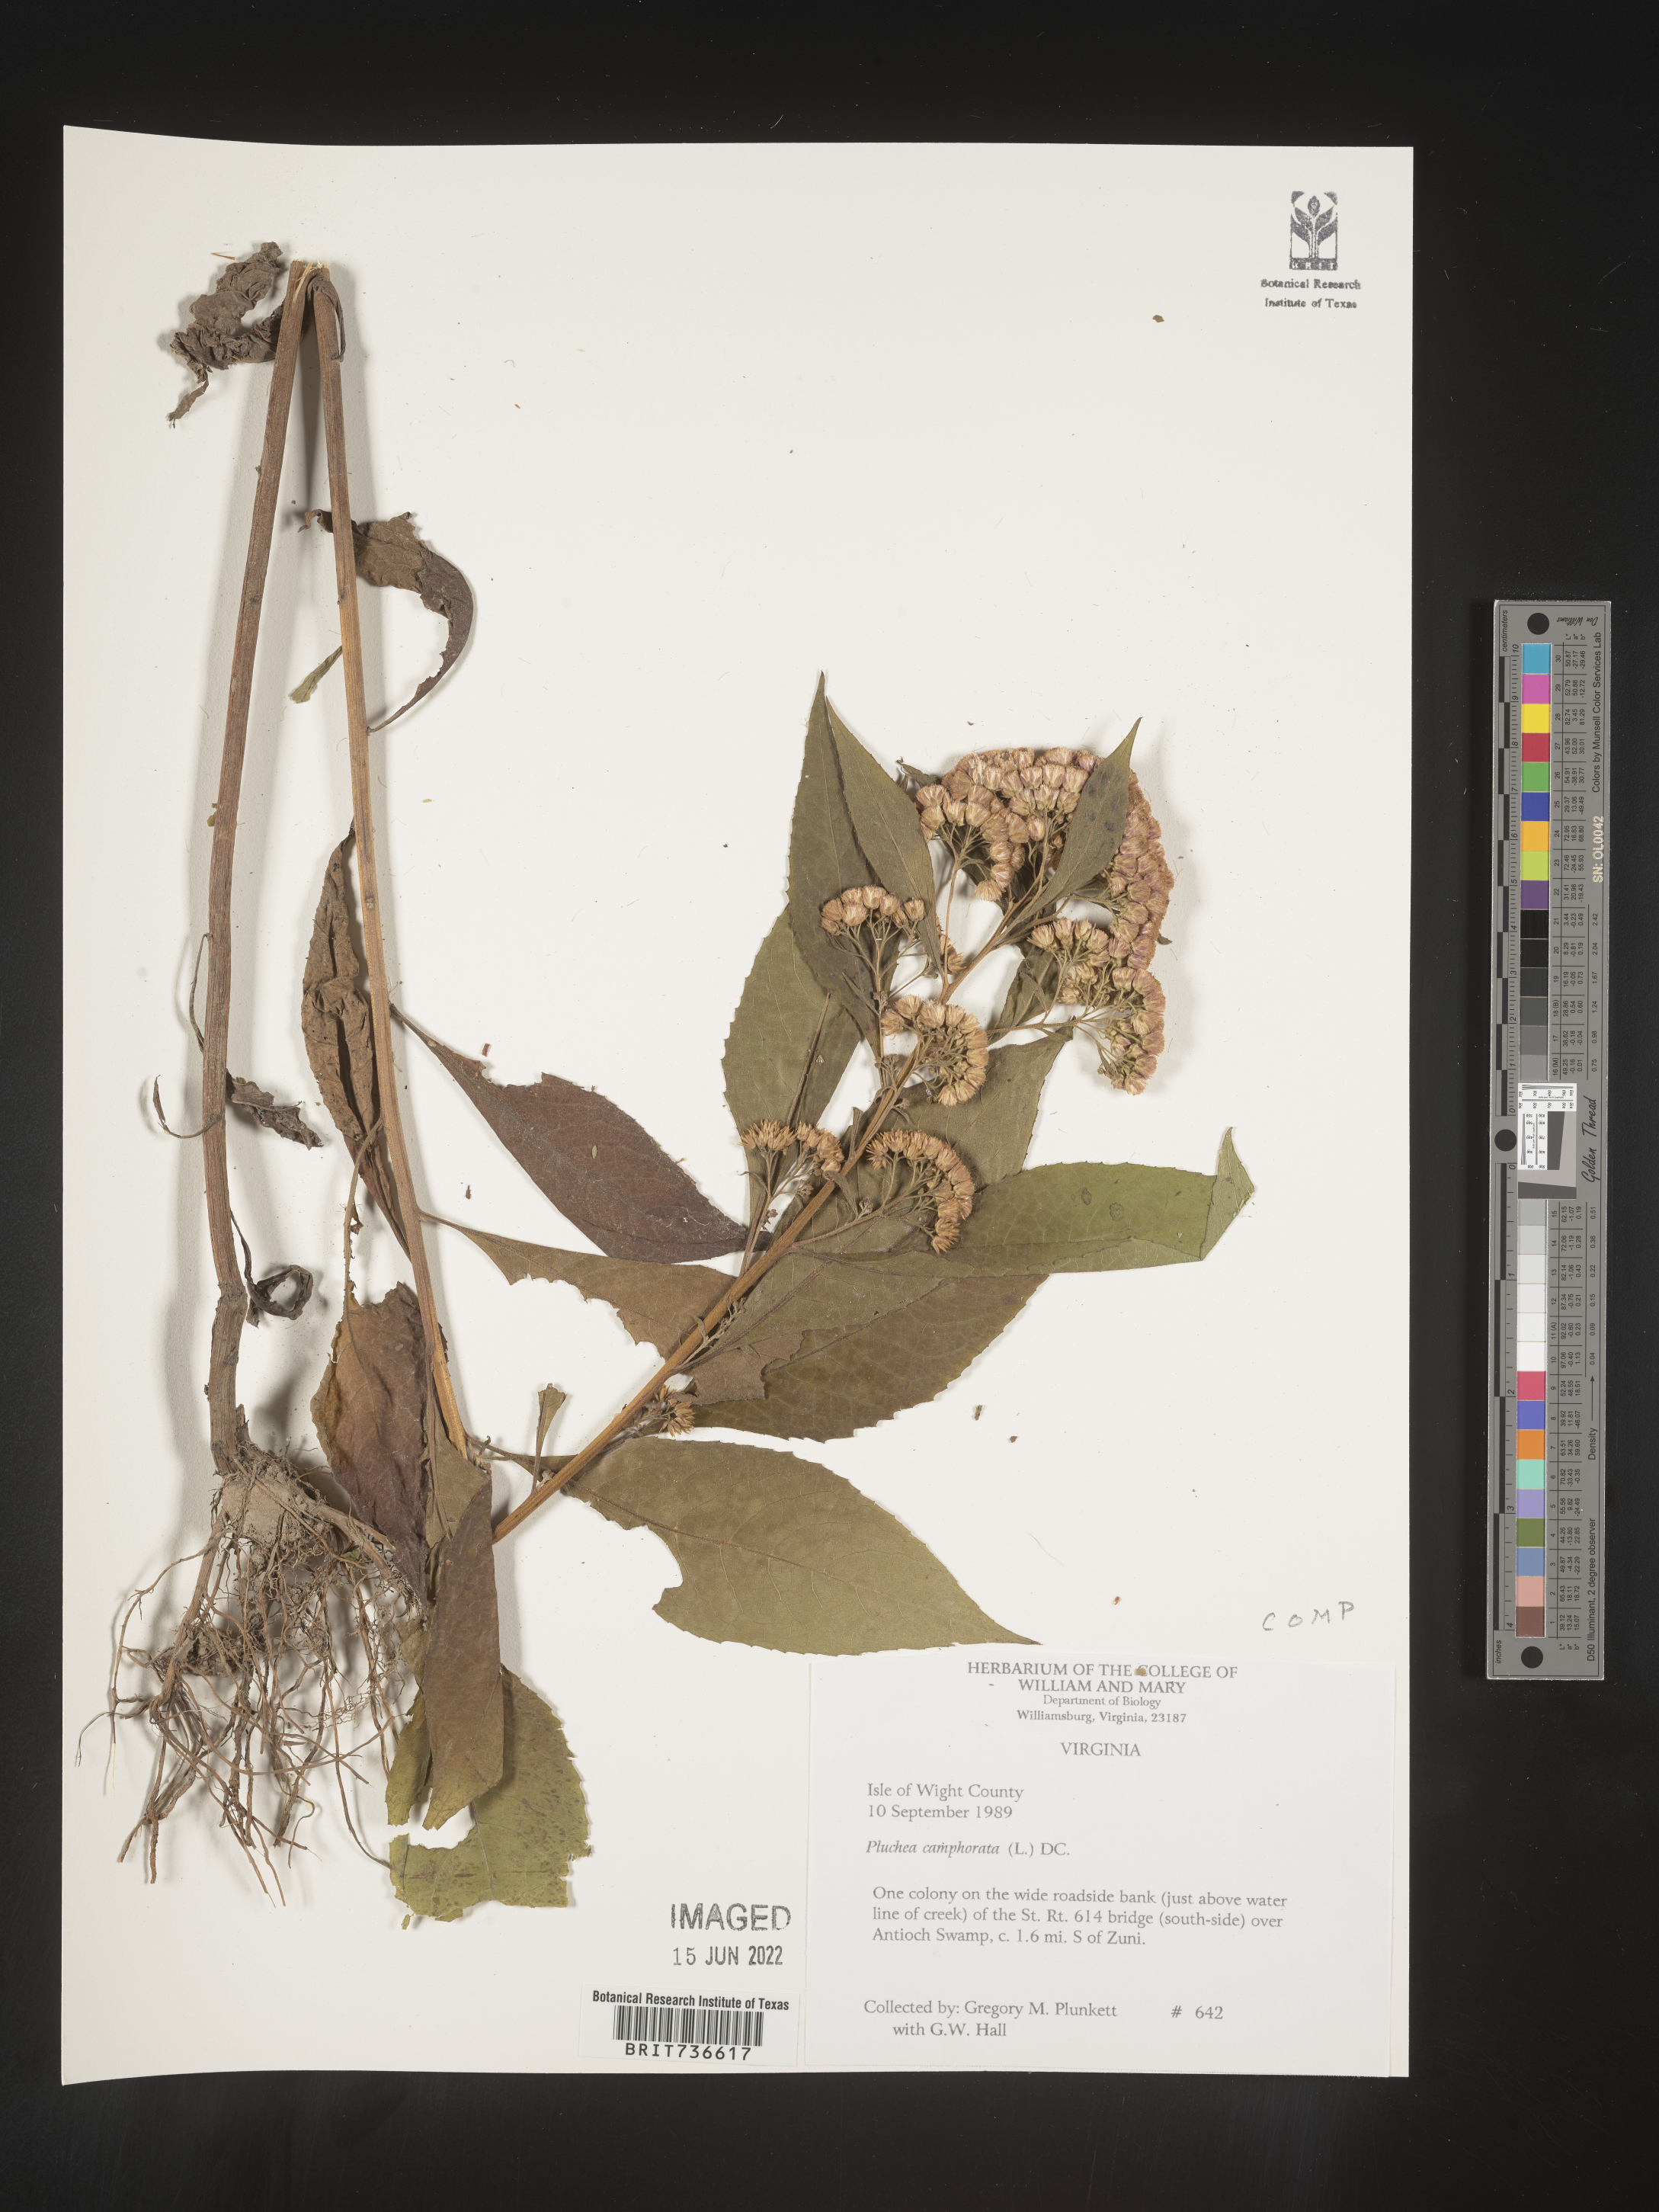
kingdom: Plantae
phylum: Tracheophyta
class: Magnoliopsida
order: Asterales
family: Asteraceae
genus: Pluchea
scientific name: Pluchea camphorata
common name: Camphor pluchea
